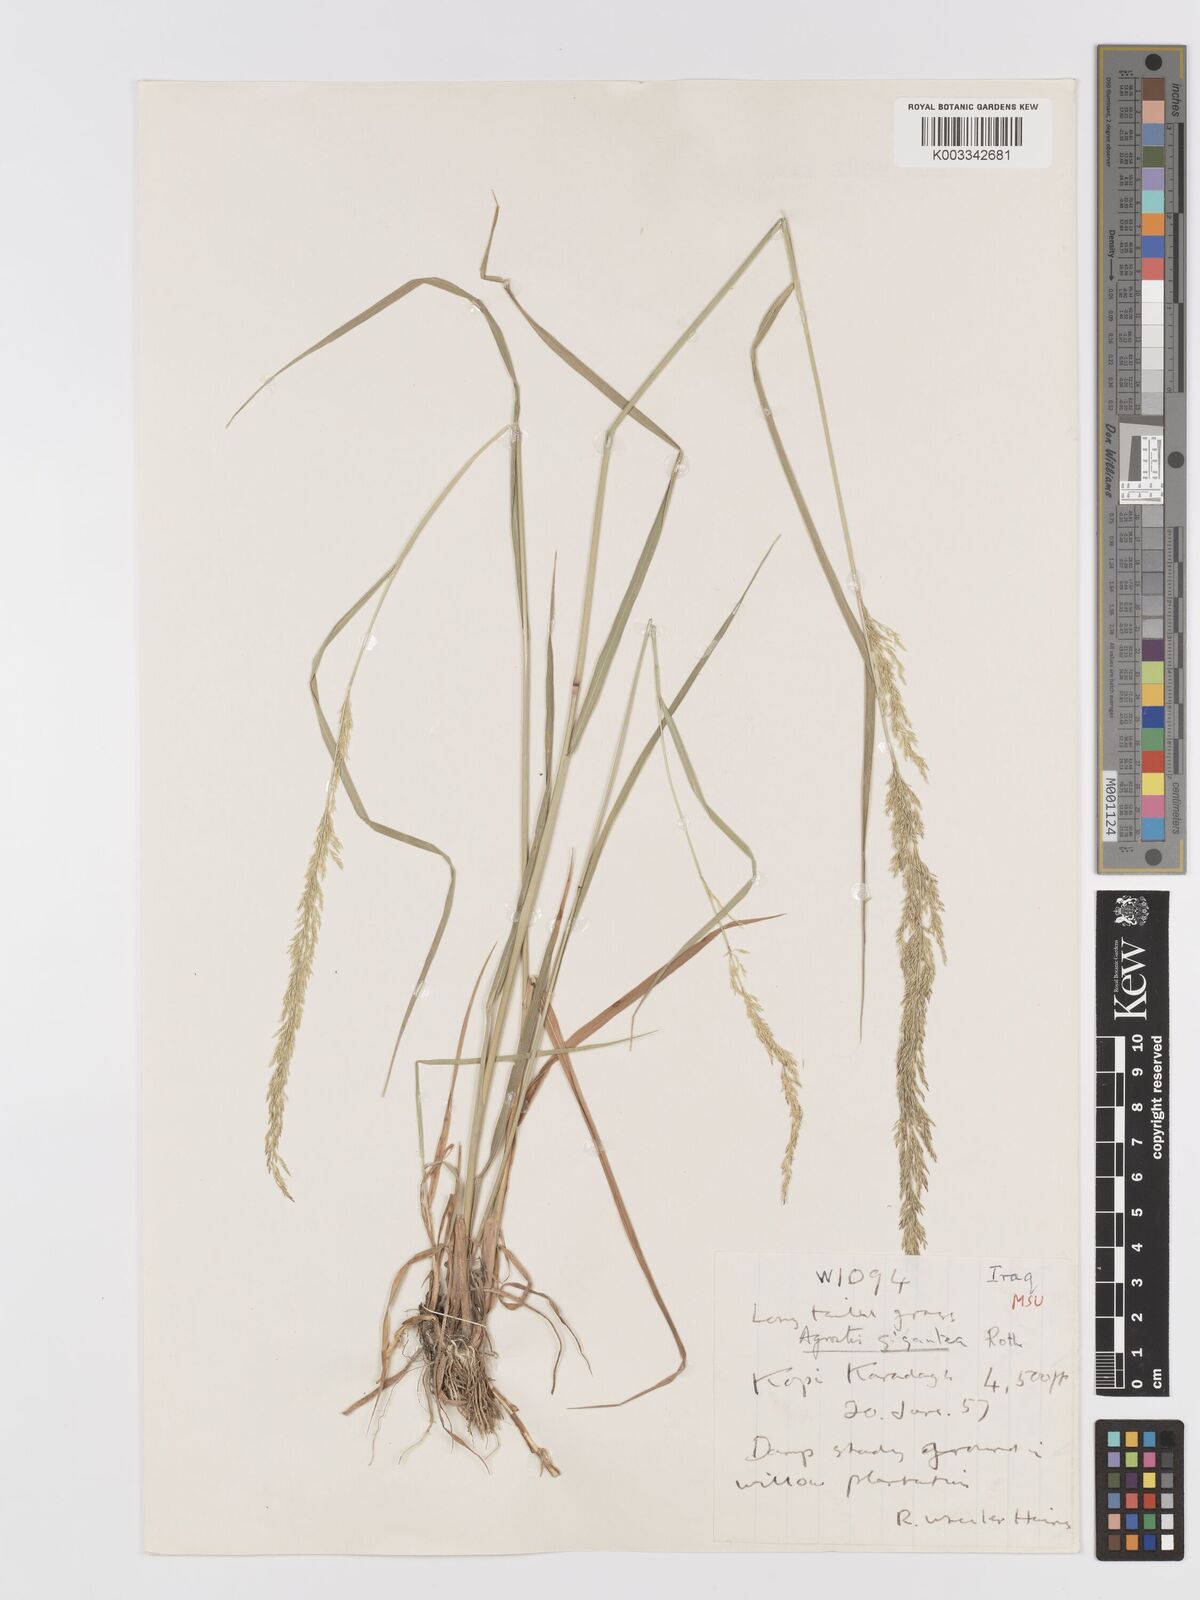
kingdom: Plantae
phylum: Tracheophyta
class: Liliopsida
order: Poales
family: Poaceae
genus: Agrostis
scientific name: Agrostis gigantea
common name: Black bent
